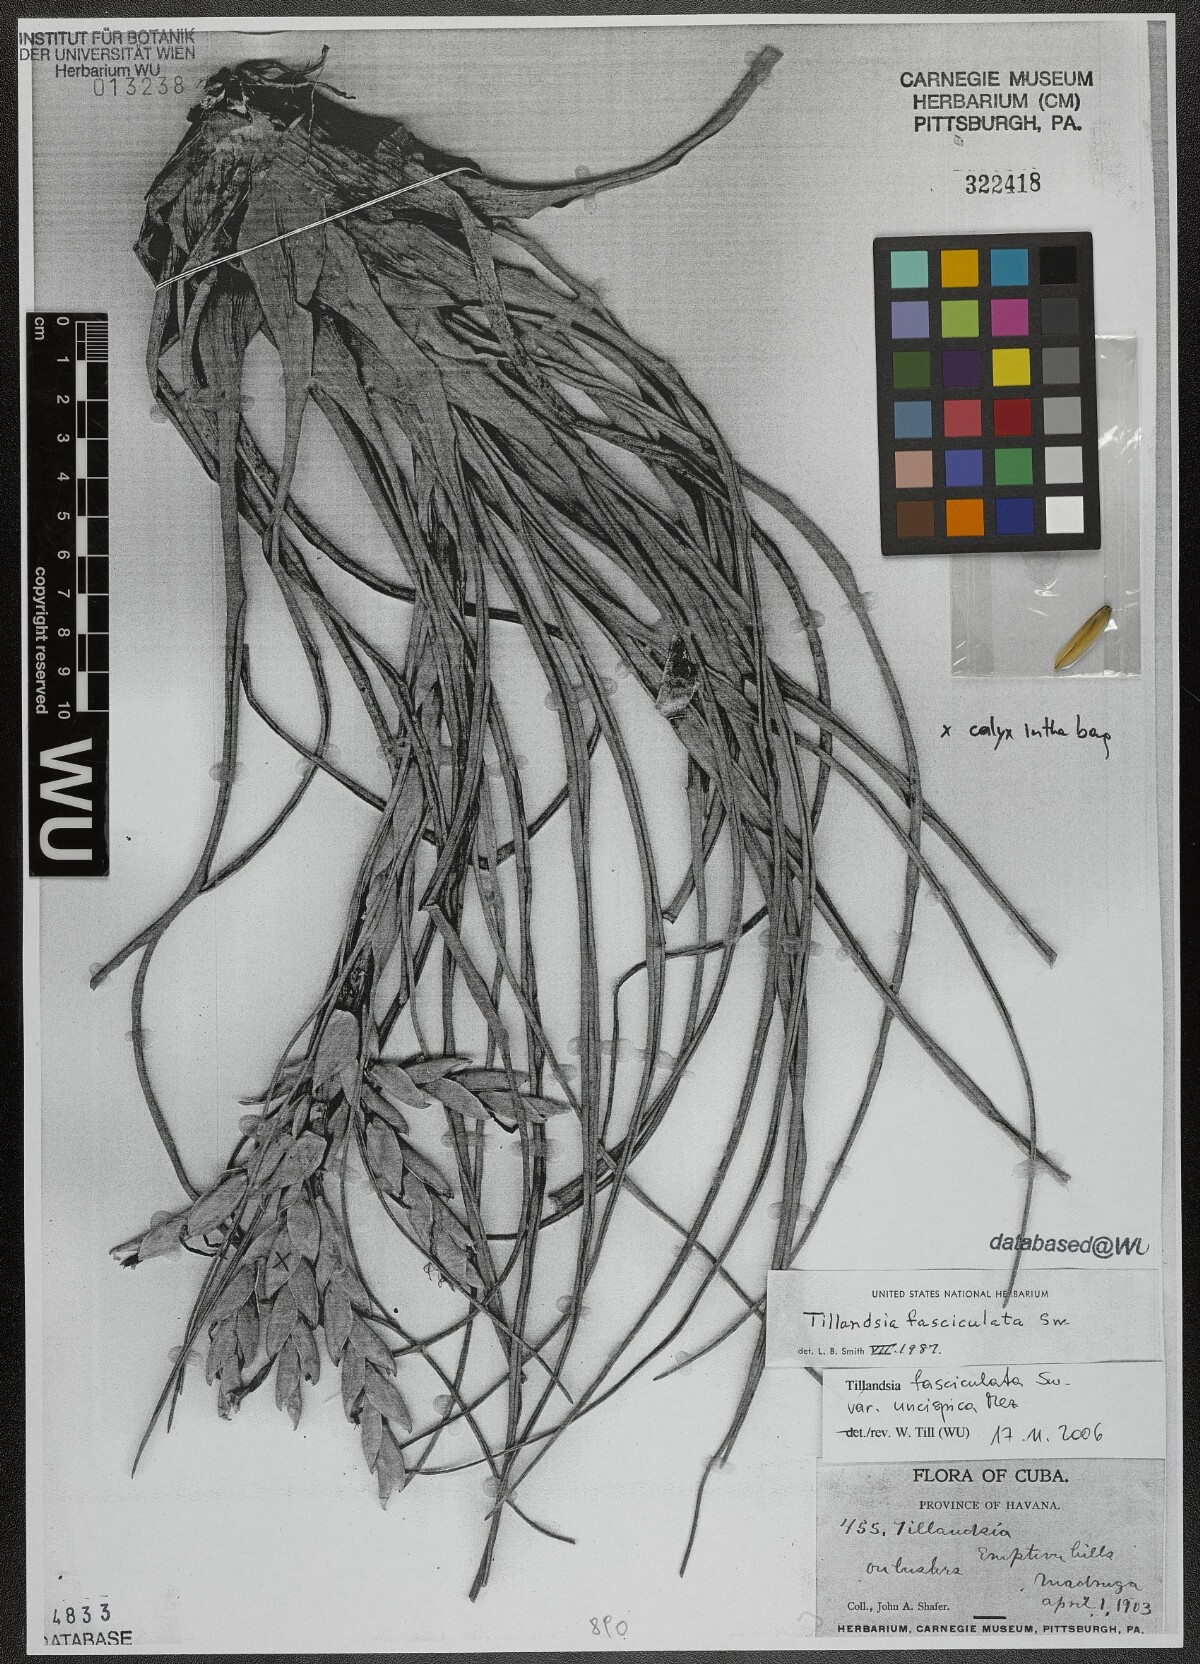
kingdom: Plantae
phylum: Tracheophyta
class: Liliopsida
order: Poales
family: Bromeliaceae
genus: Tillandsia
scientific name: Tillandsia fasciculata
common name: Giant airplant
